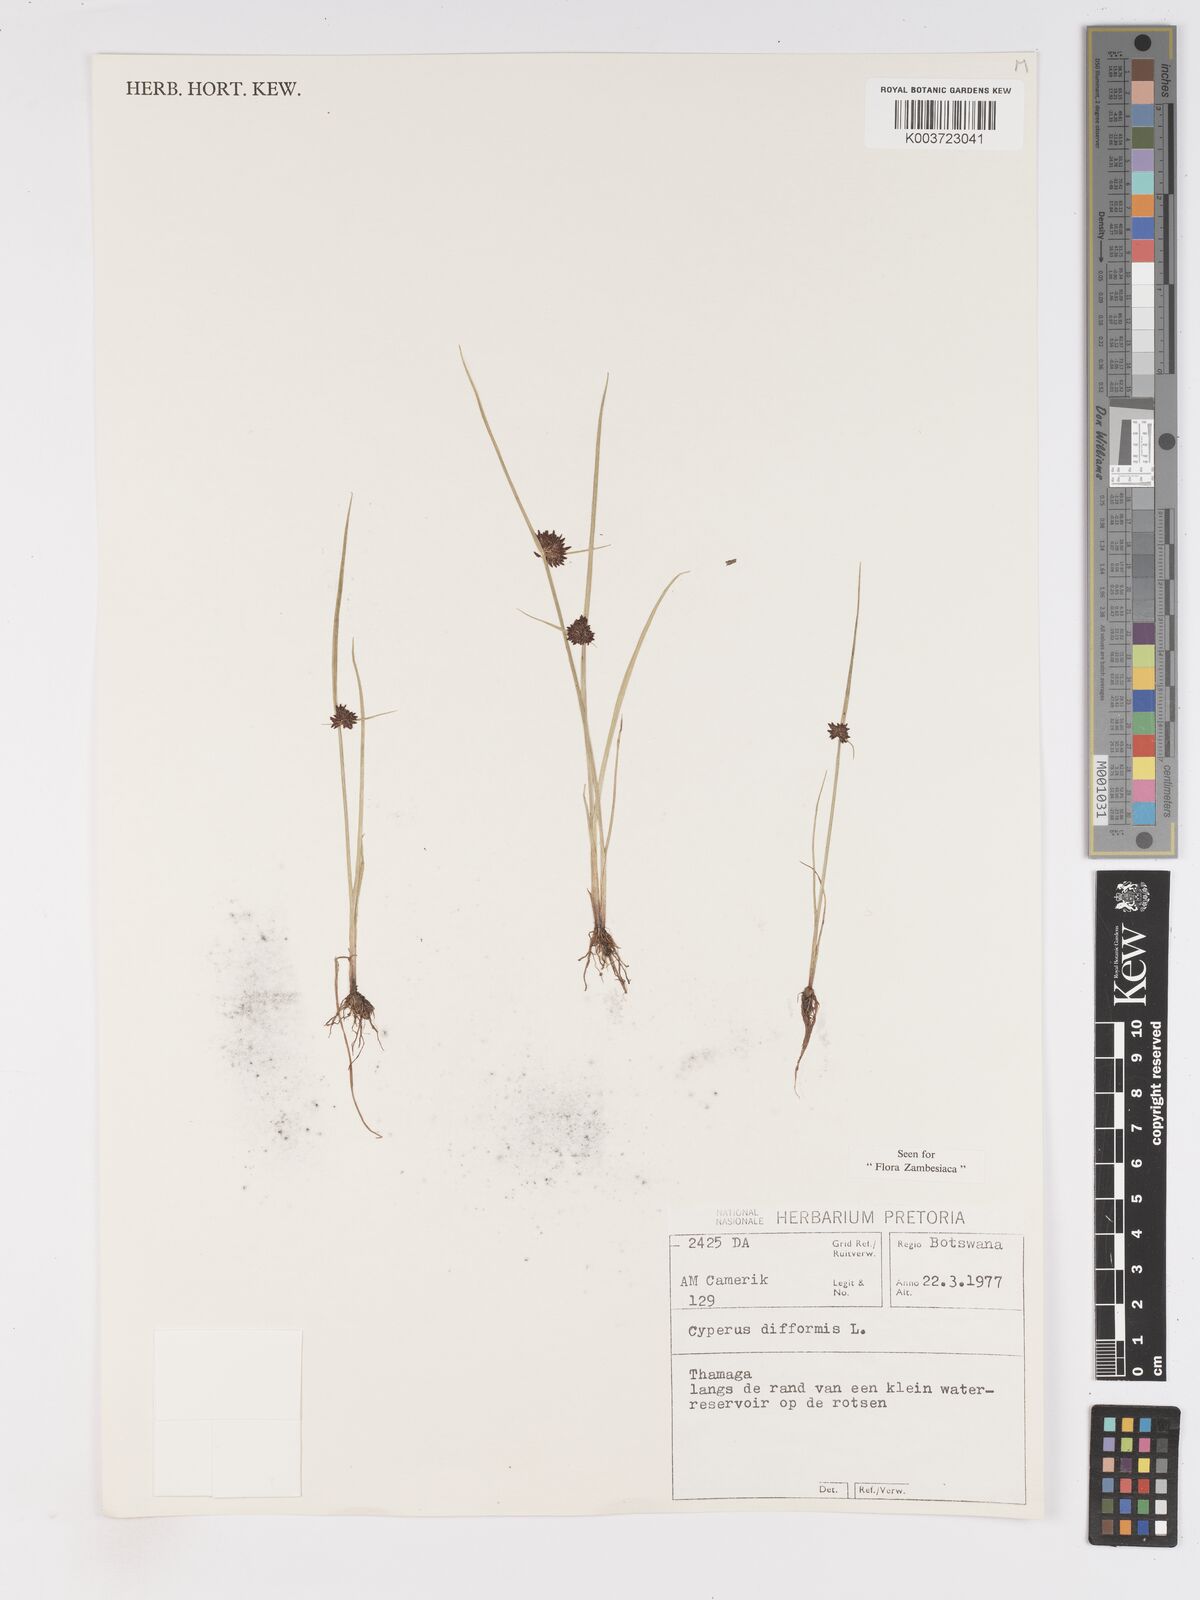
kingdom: Plantae
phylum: Tracheophyta
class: Liliopsida
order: Poales
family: Cyperaceae
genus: Cyperus
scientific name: Cyperus difformis
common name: Variable flatsedge
